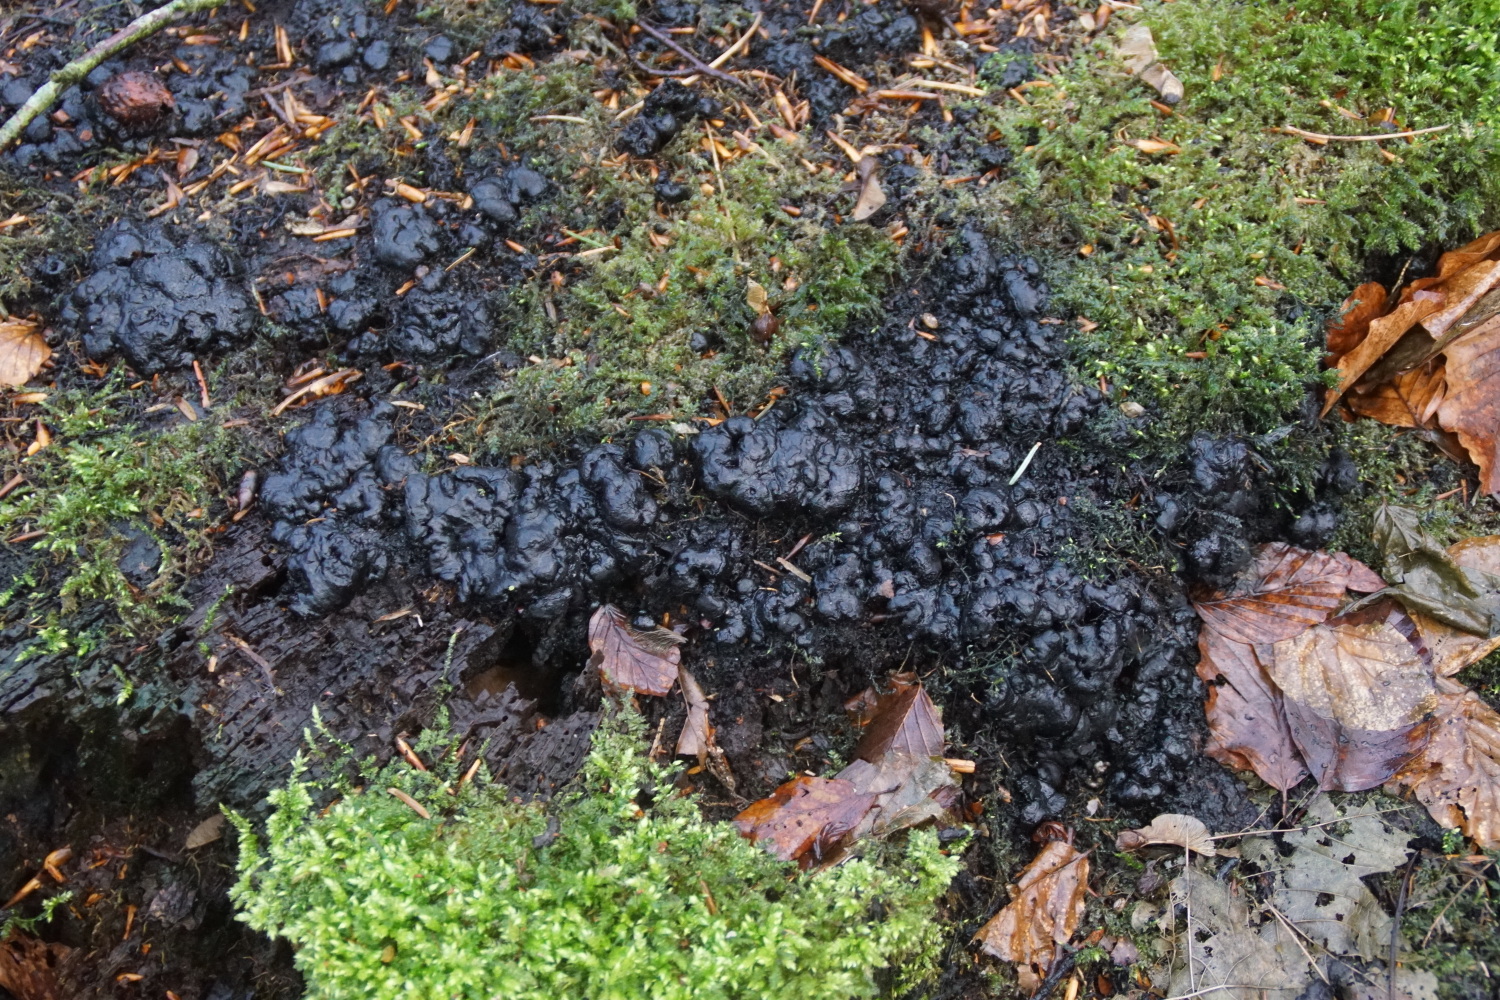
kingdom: Fungi
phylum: Ascomycota
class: Sordariomycetes
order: Xylariales
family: Xylariaceae
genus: Kretzschmaria
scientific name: Kretzschmaria deusta
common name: stor kulsvamp
